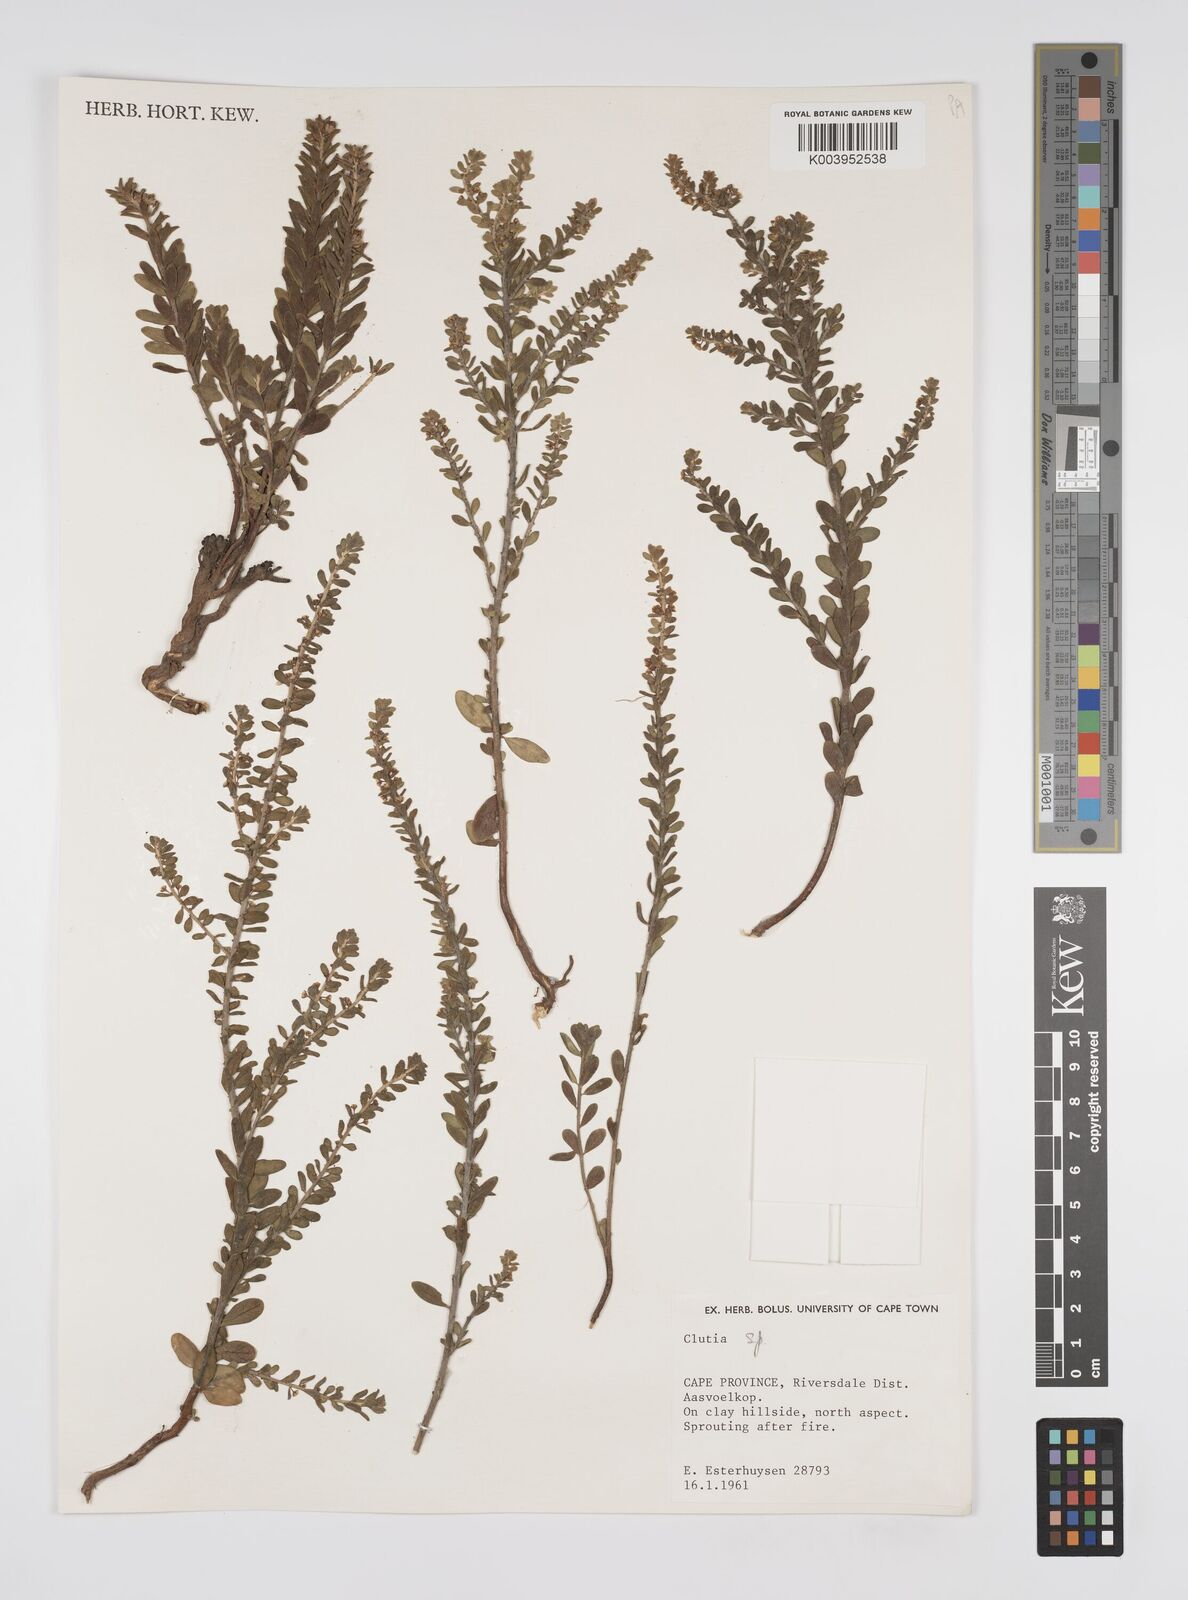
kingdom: Plantae
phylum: Tracheophyta
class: Magnoliopsida
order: Malpighiales
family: Peraceae
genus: Clutia
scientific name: Clutia
